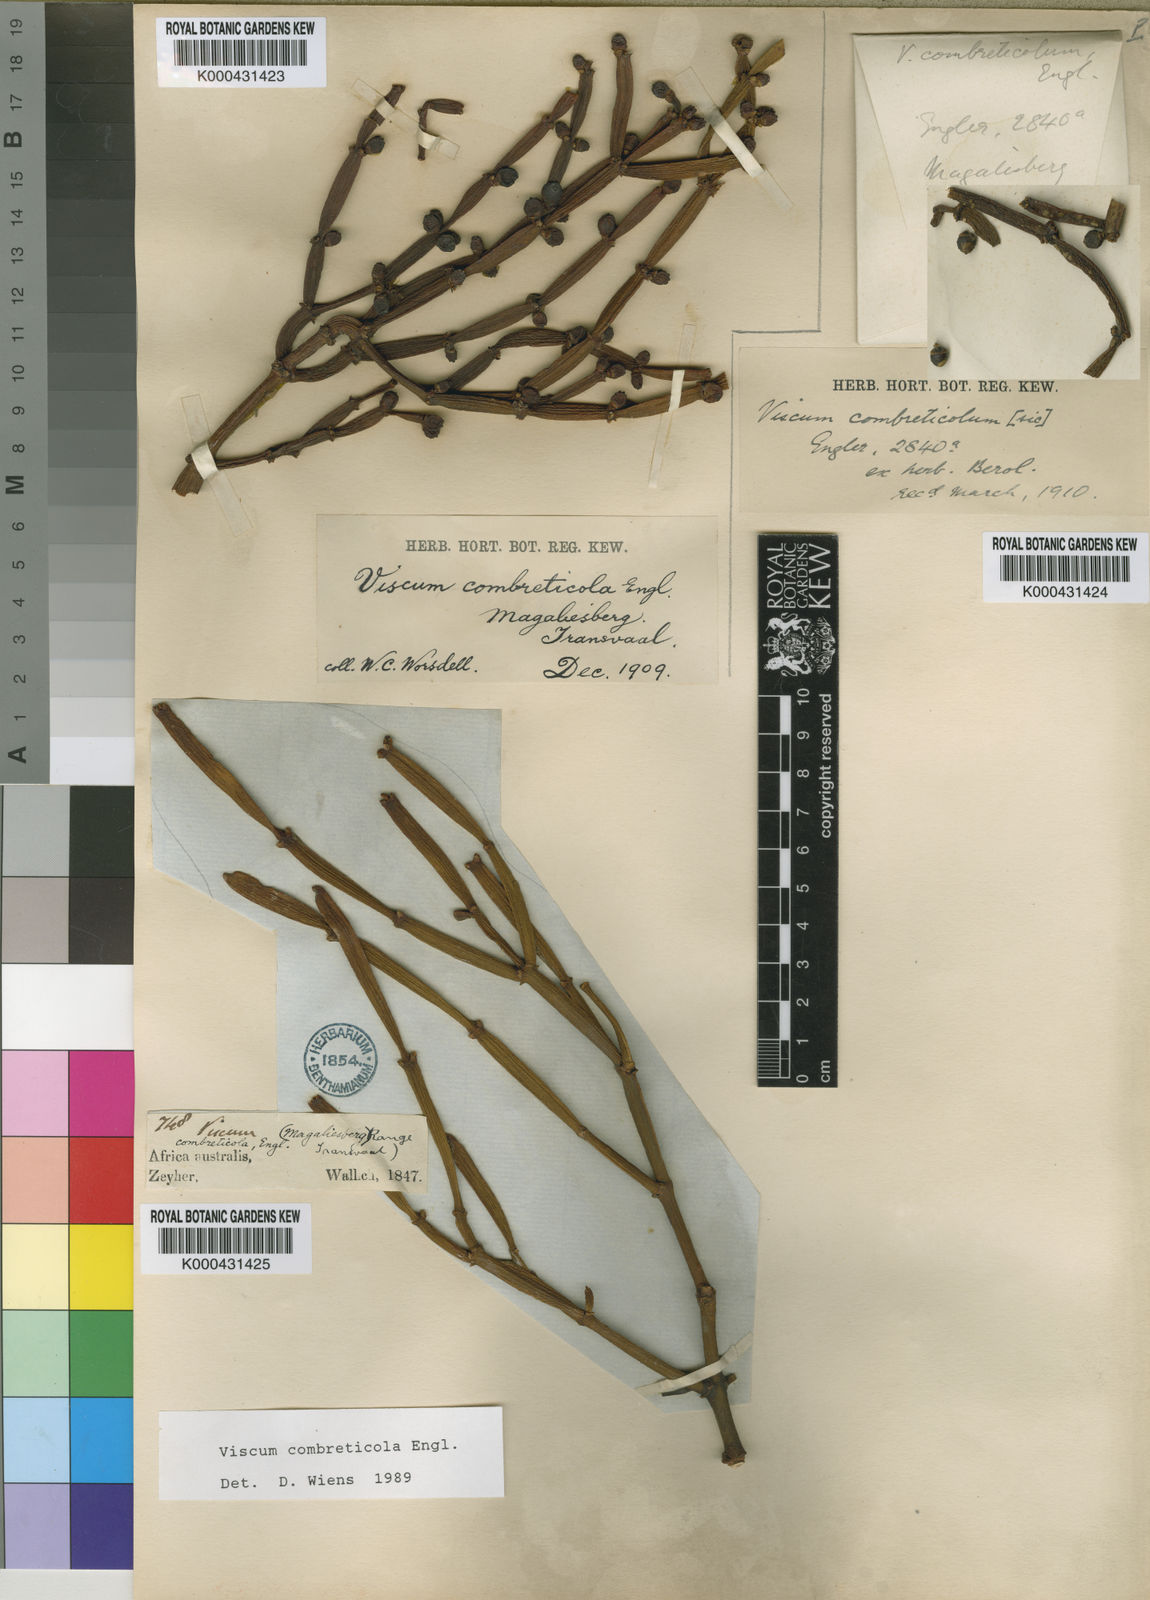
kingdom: Plantae
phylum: Tracheophyta
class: Magnoliopsida
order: Santalales
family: Viscaceae
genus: Viscum
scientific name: Viscum combreticola
